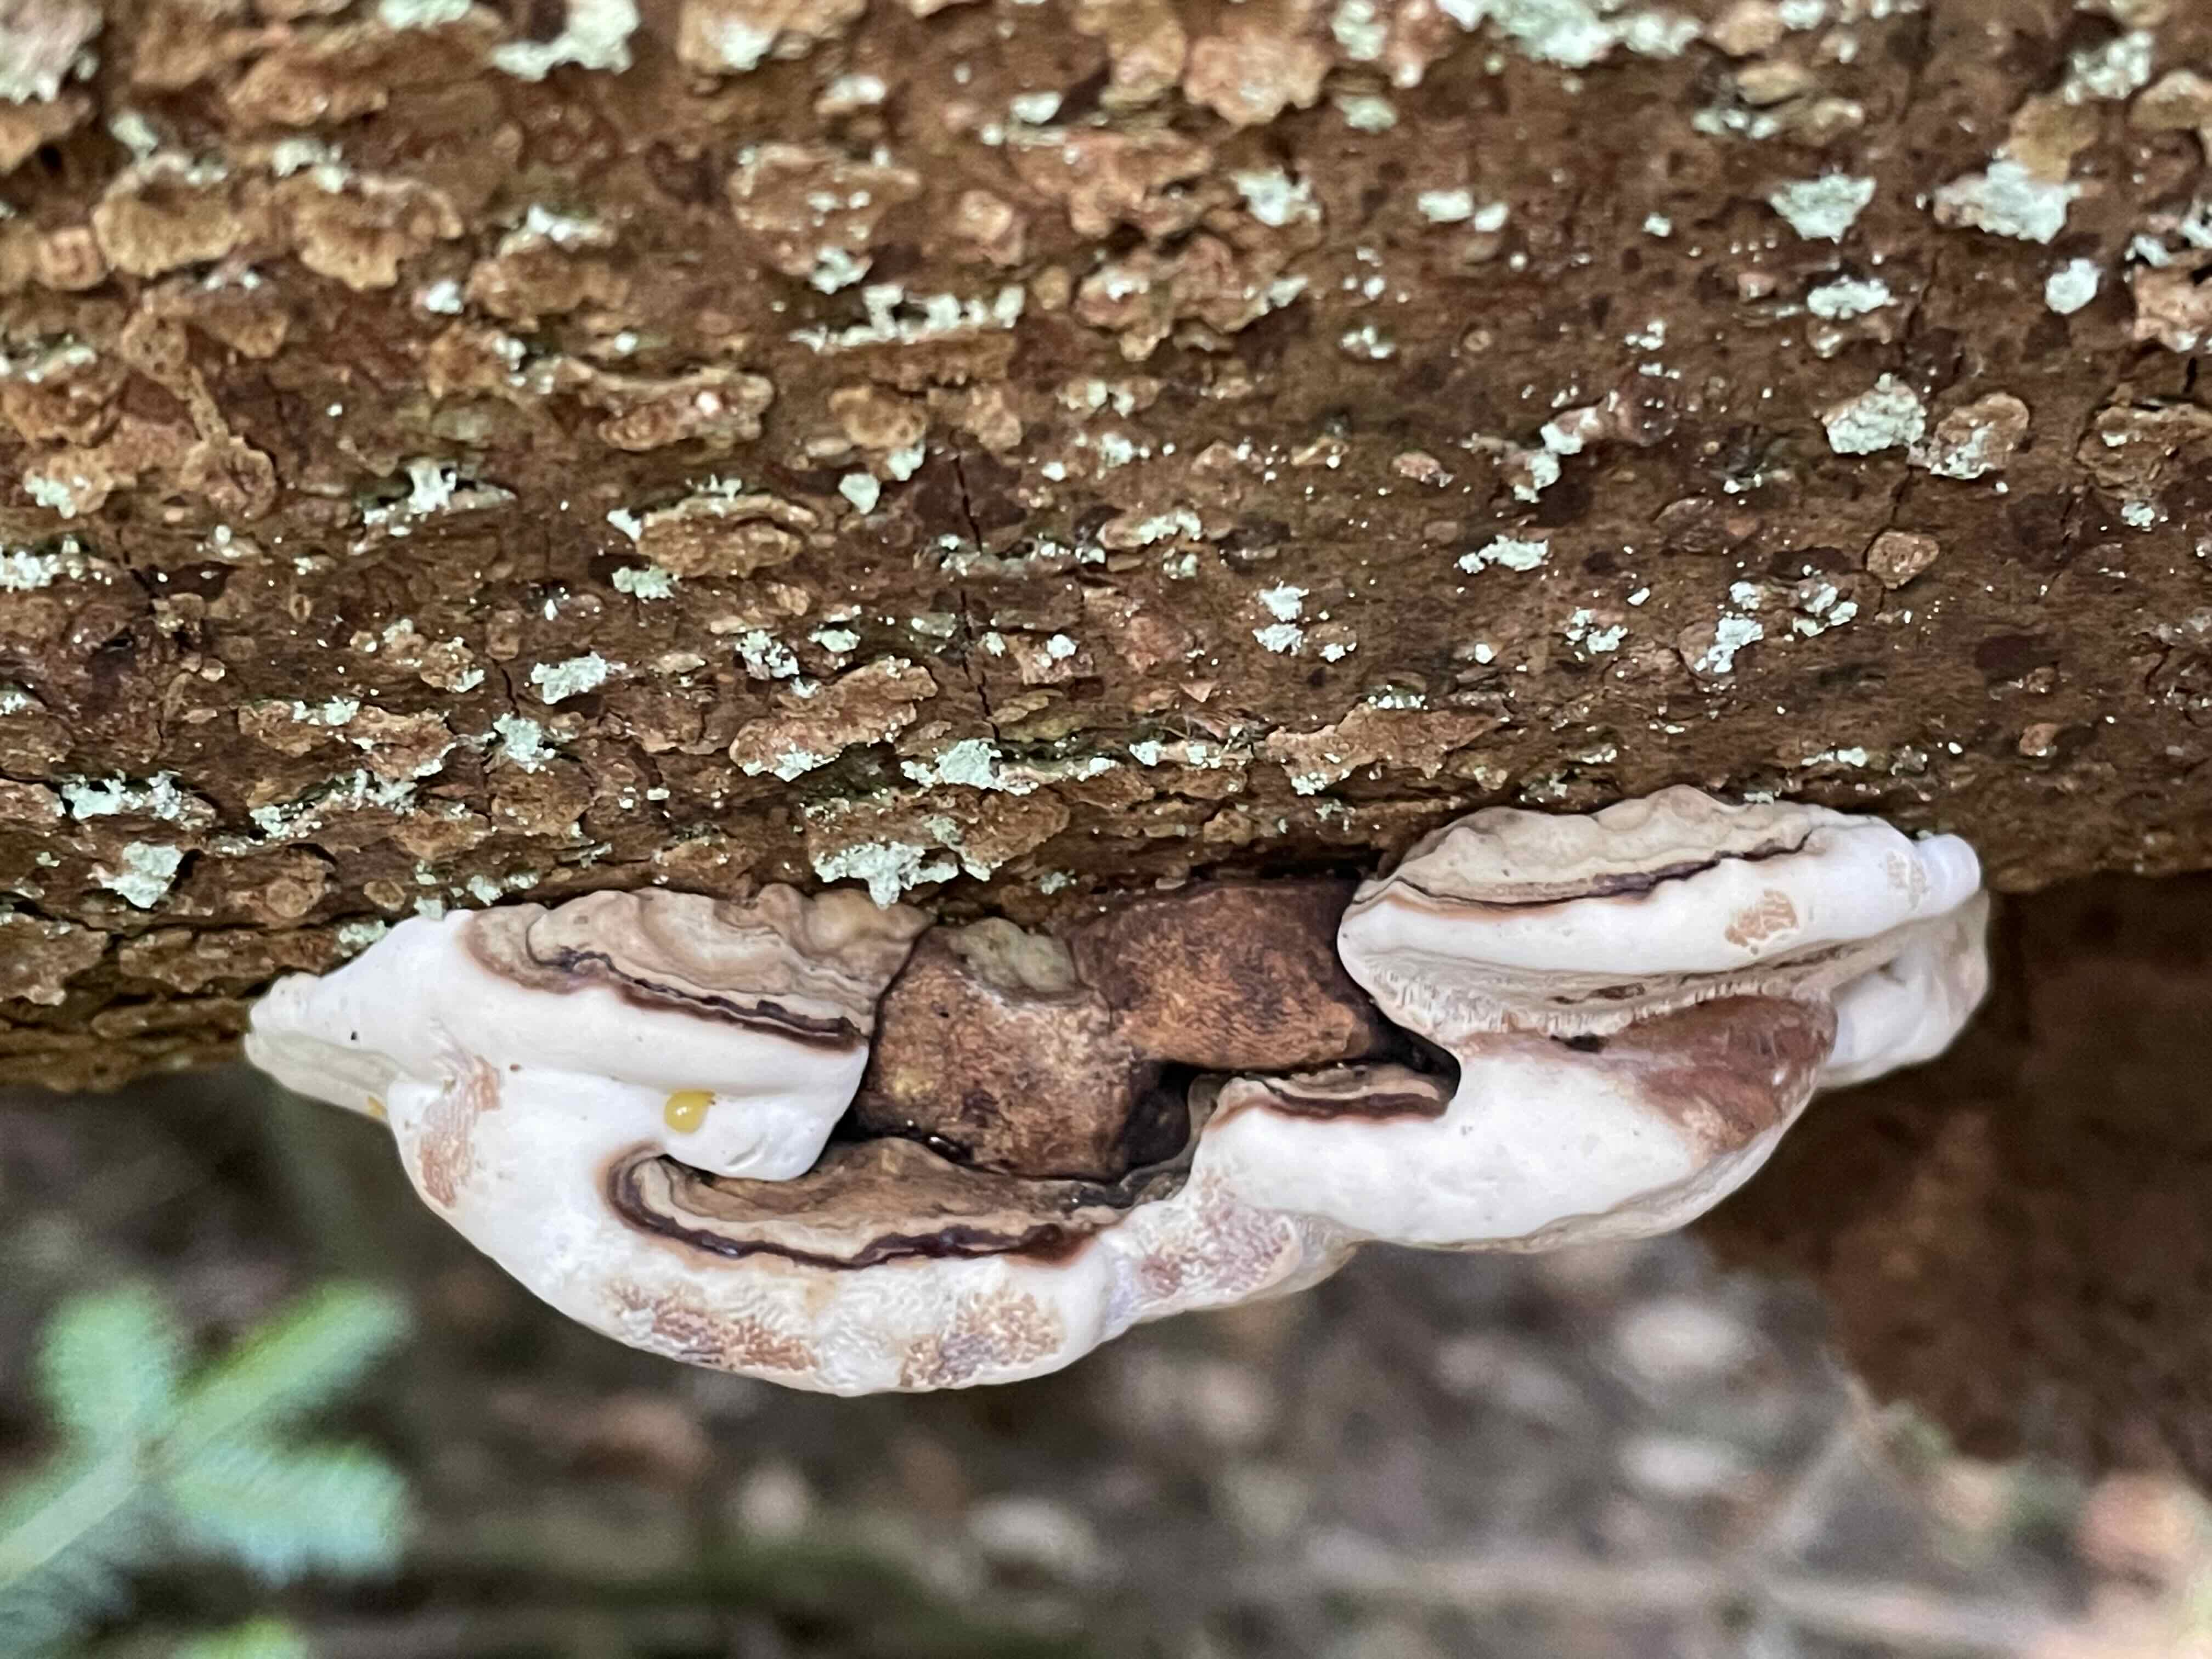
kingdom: Fungi
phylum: Basidiomycota
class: Agaricomycetes
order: Polyporales
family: Polyporaceae
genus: Ganoderma
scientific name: Ganoderma applanatum
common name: flad lakporesvamp
